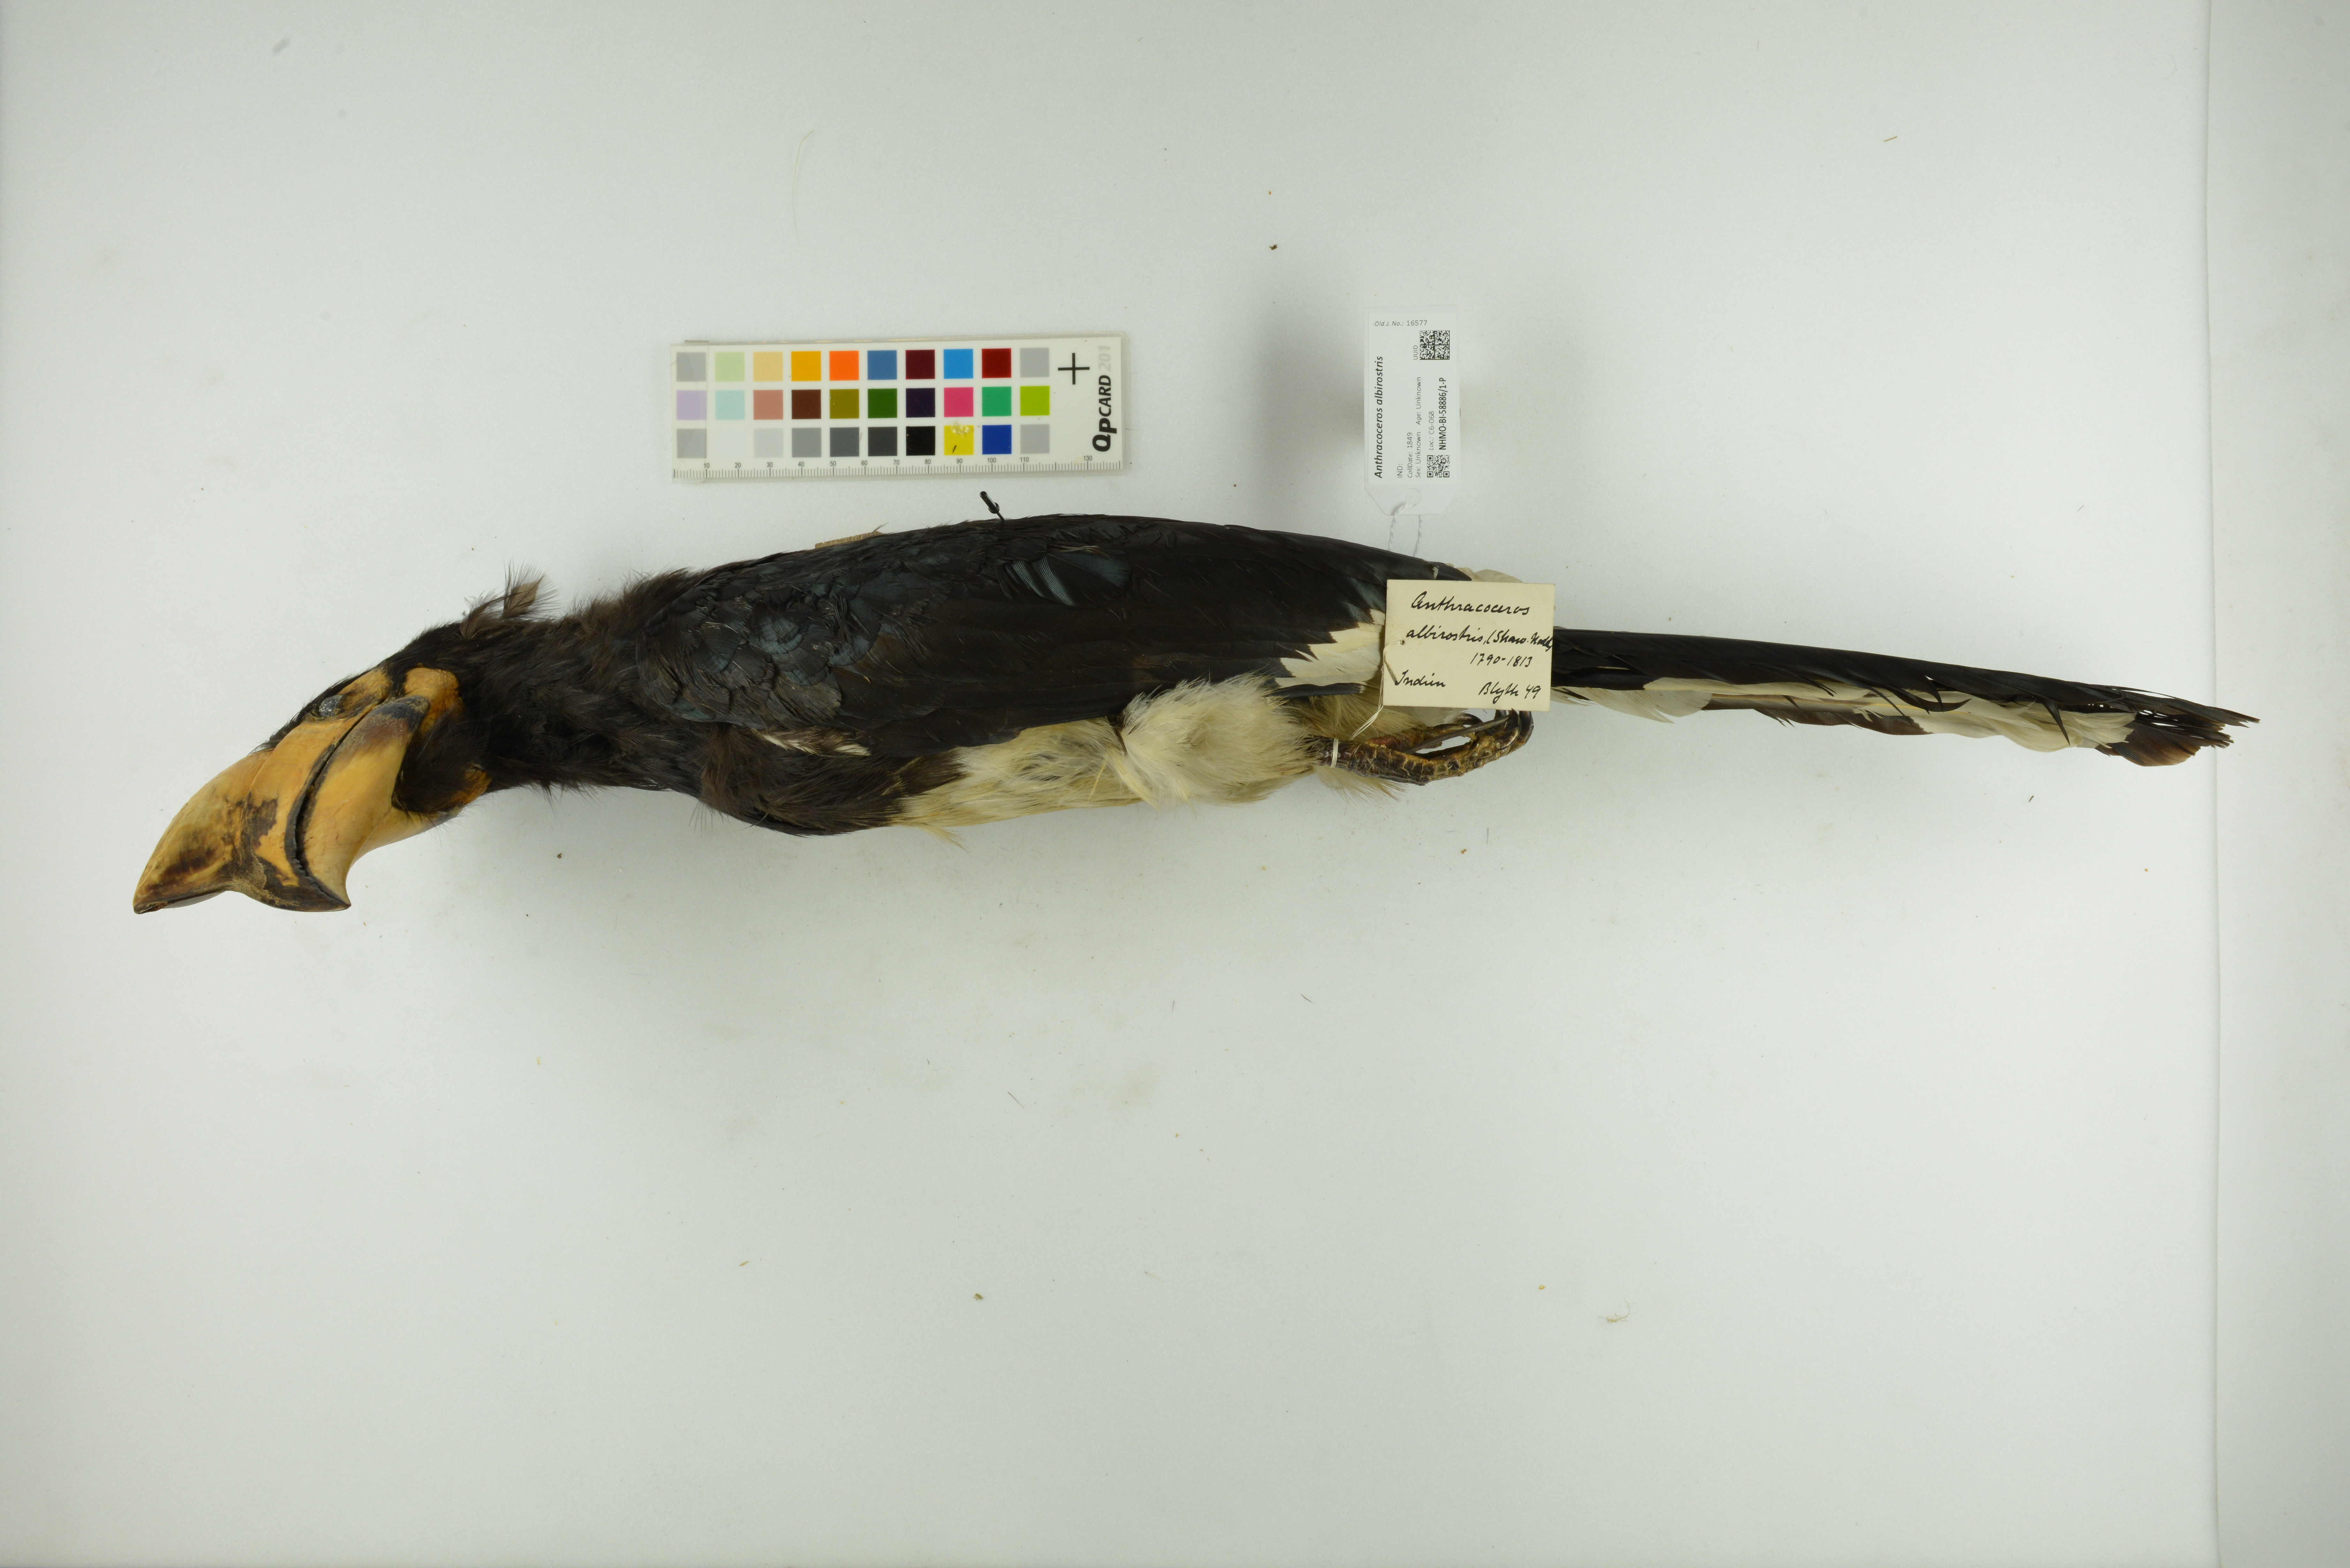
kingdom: Animalia
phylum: Chordata
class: Aves
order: Bucerotiformes
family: Bucerotidae
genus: Anthracoceros
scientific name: Anthracoceros albirostris
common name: Oriental pied-hornbill
